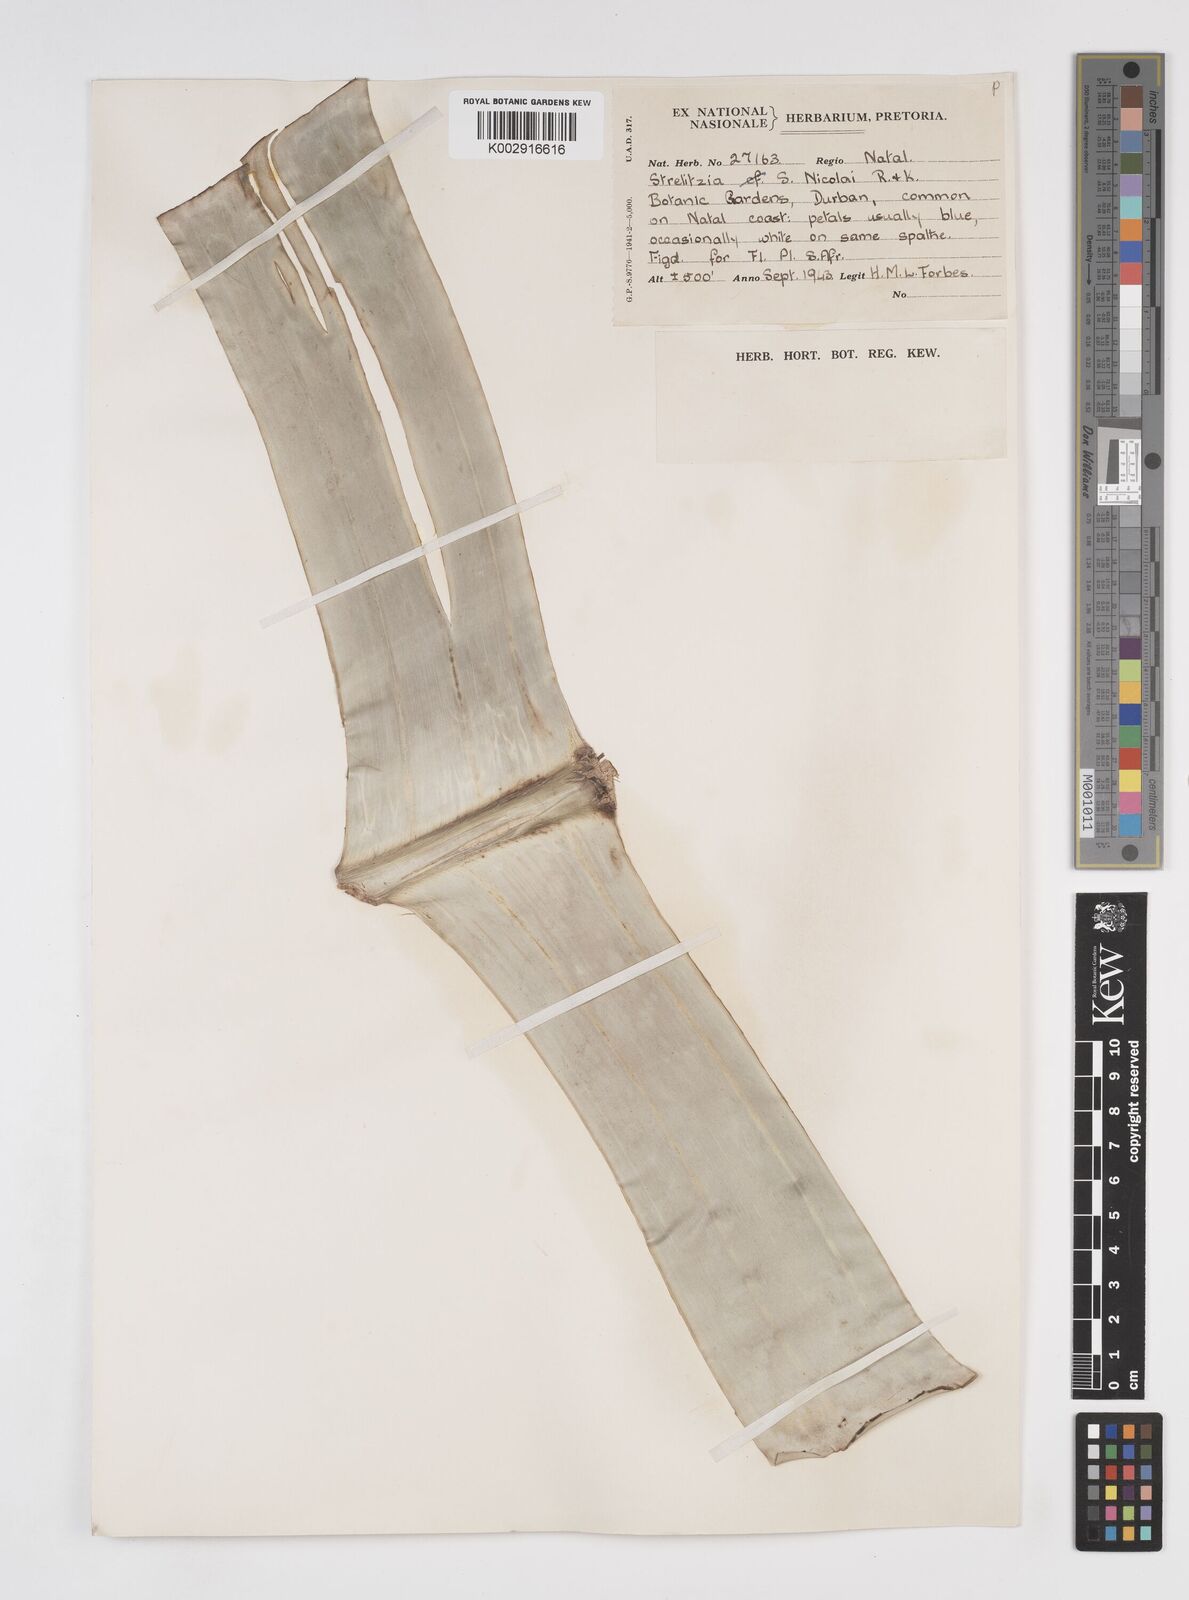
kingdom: Plantae
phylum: Tracheophyta
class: Liliopsida
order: Zingiberales
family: Strelitziaceae
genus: Strelitzia
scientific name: Strelitzia nicolai
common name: Bird-of-paradise tree
